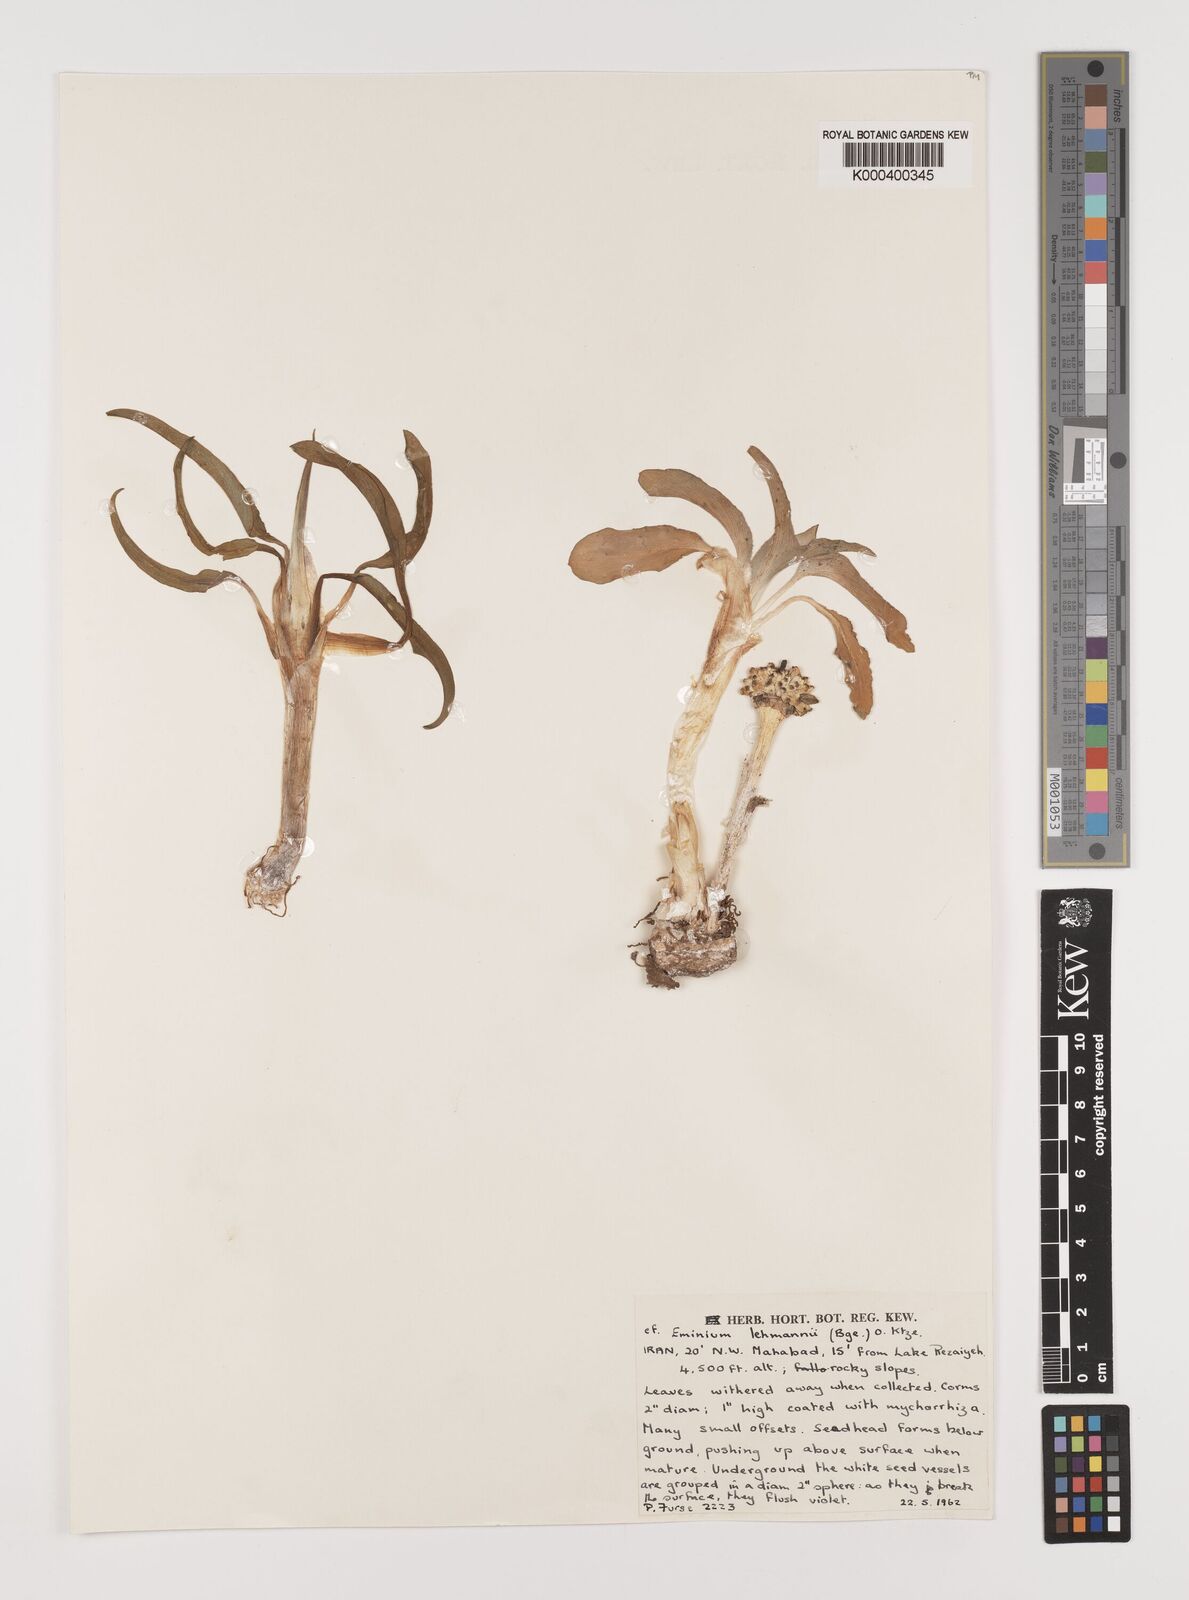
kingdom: Plantae
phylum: Tracheophyta
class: Liliopsida
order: Alismatales
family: Araceae
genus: Eminium
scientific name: Eminium lehmannii
